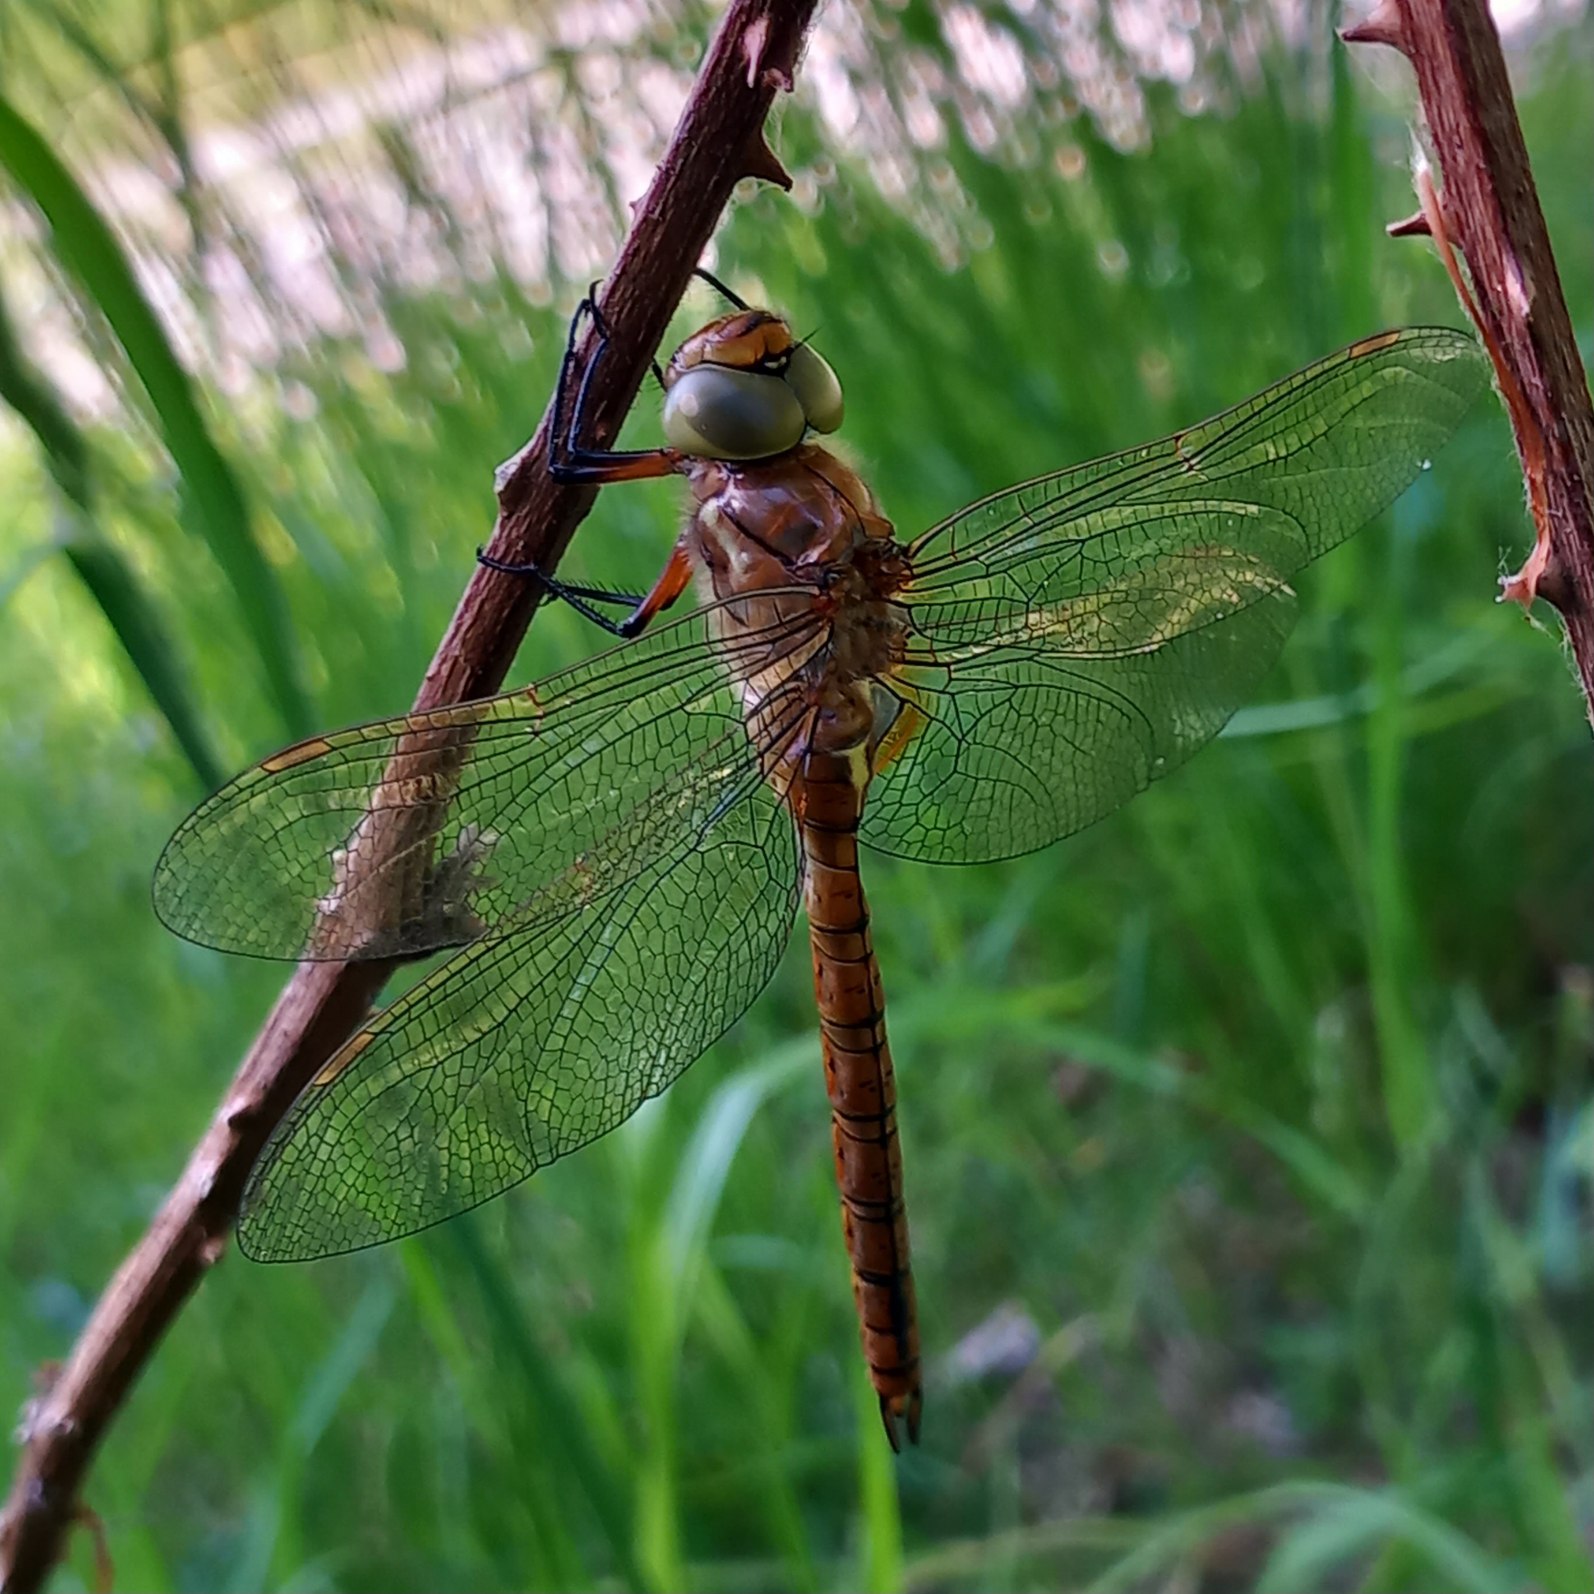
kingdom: Animalia
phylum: Arthropoda
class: Insecta
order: Odonata
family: Aeshnidae
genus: Aeshna
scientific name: Aeshna isoceles
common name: Kileplet-mosaikguldsmed
